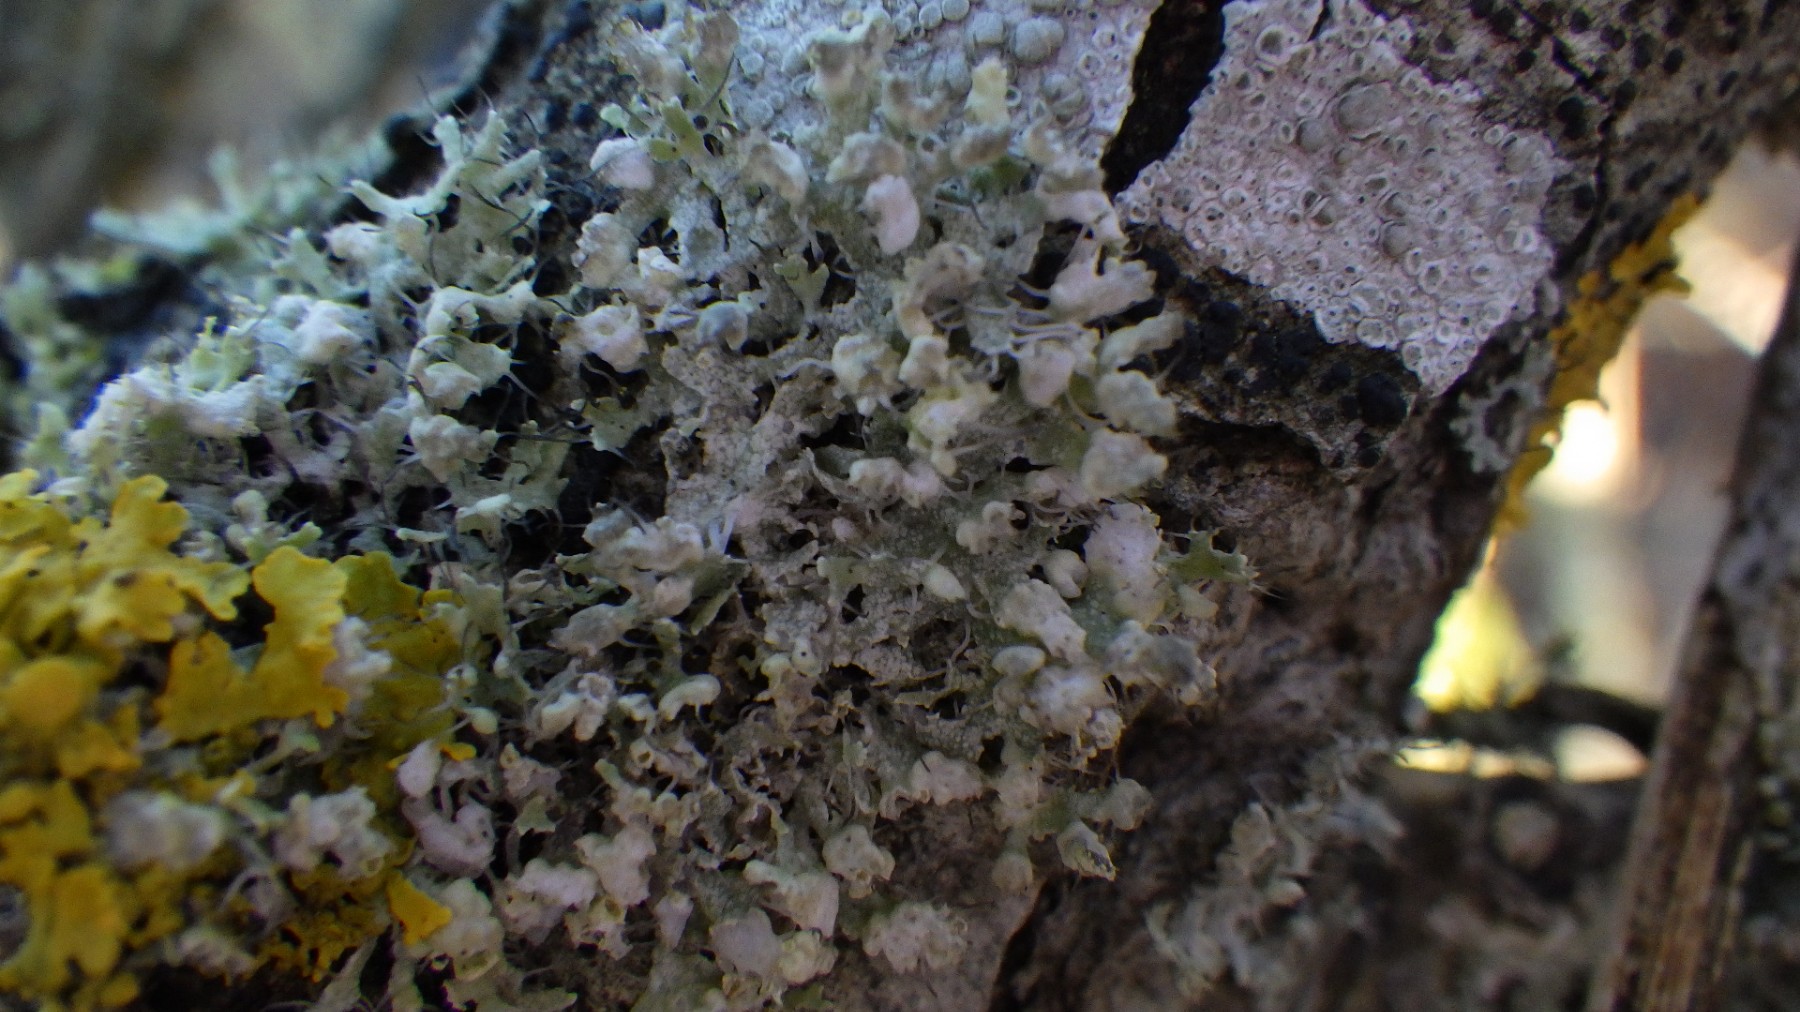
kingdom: Fungi
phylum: Ascomycota
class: Lecanoromycetes
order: Caliciales
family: Physciaceae
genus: Physcia
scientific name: Physcia adscendens
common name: hætte-rosetlav
